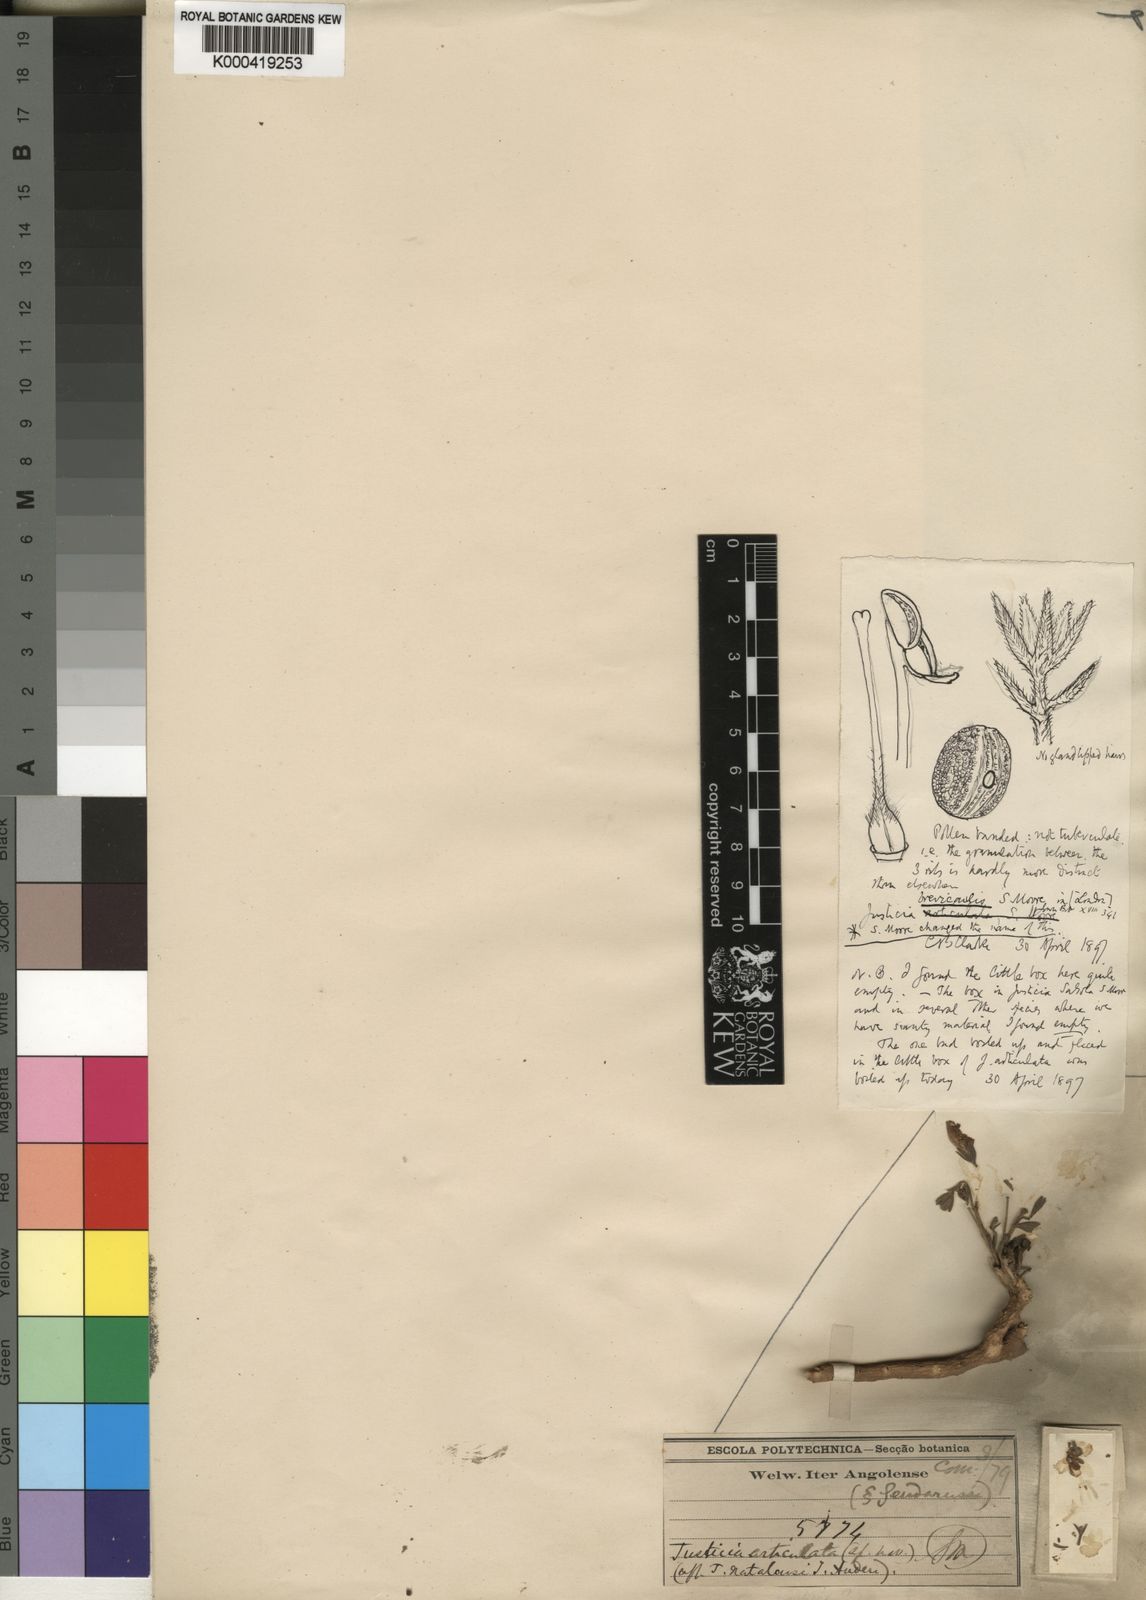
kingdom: Plantae
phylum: Tracheophyta
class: Magnoliopsida
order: Lamiales
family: Acanthaceae
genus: Monechma
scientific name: Monechma salsola
